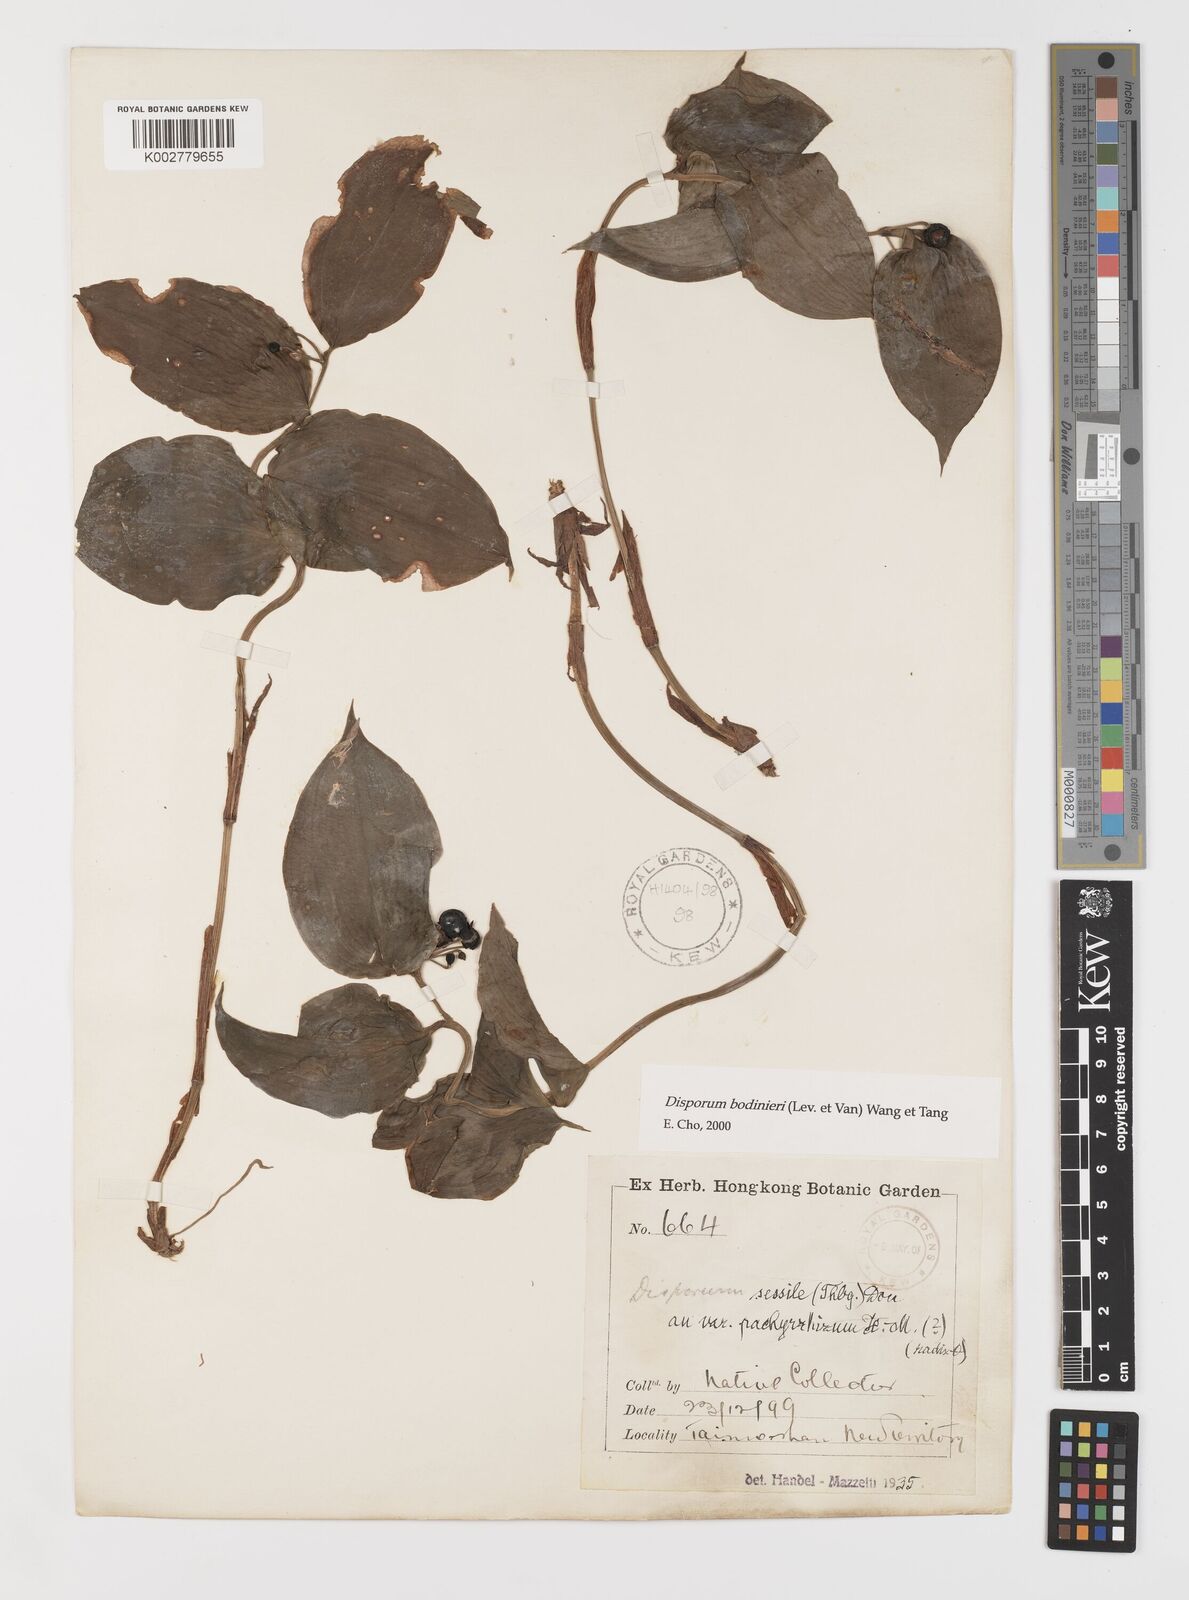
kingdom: Plantae
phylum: Tracheophyta
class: Liliopsida
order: Liliales
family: Colchicaceae
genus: Disporum
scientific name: Disporum bodinieri
